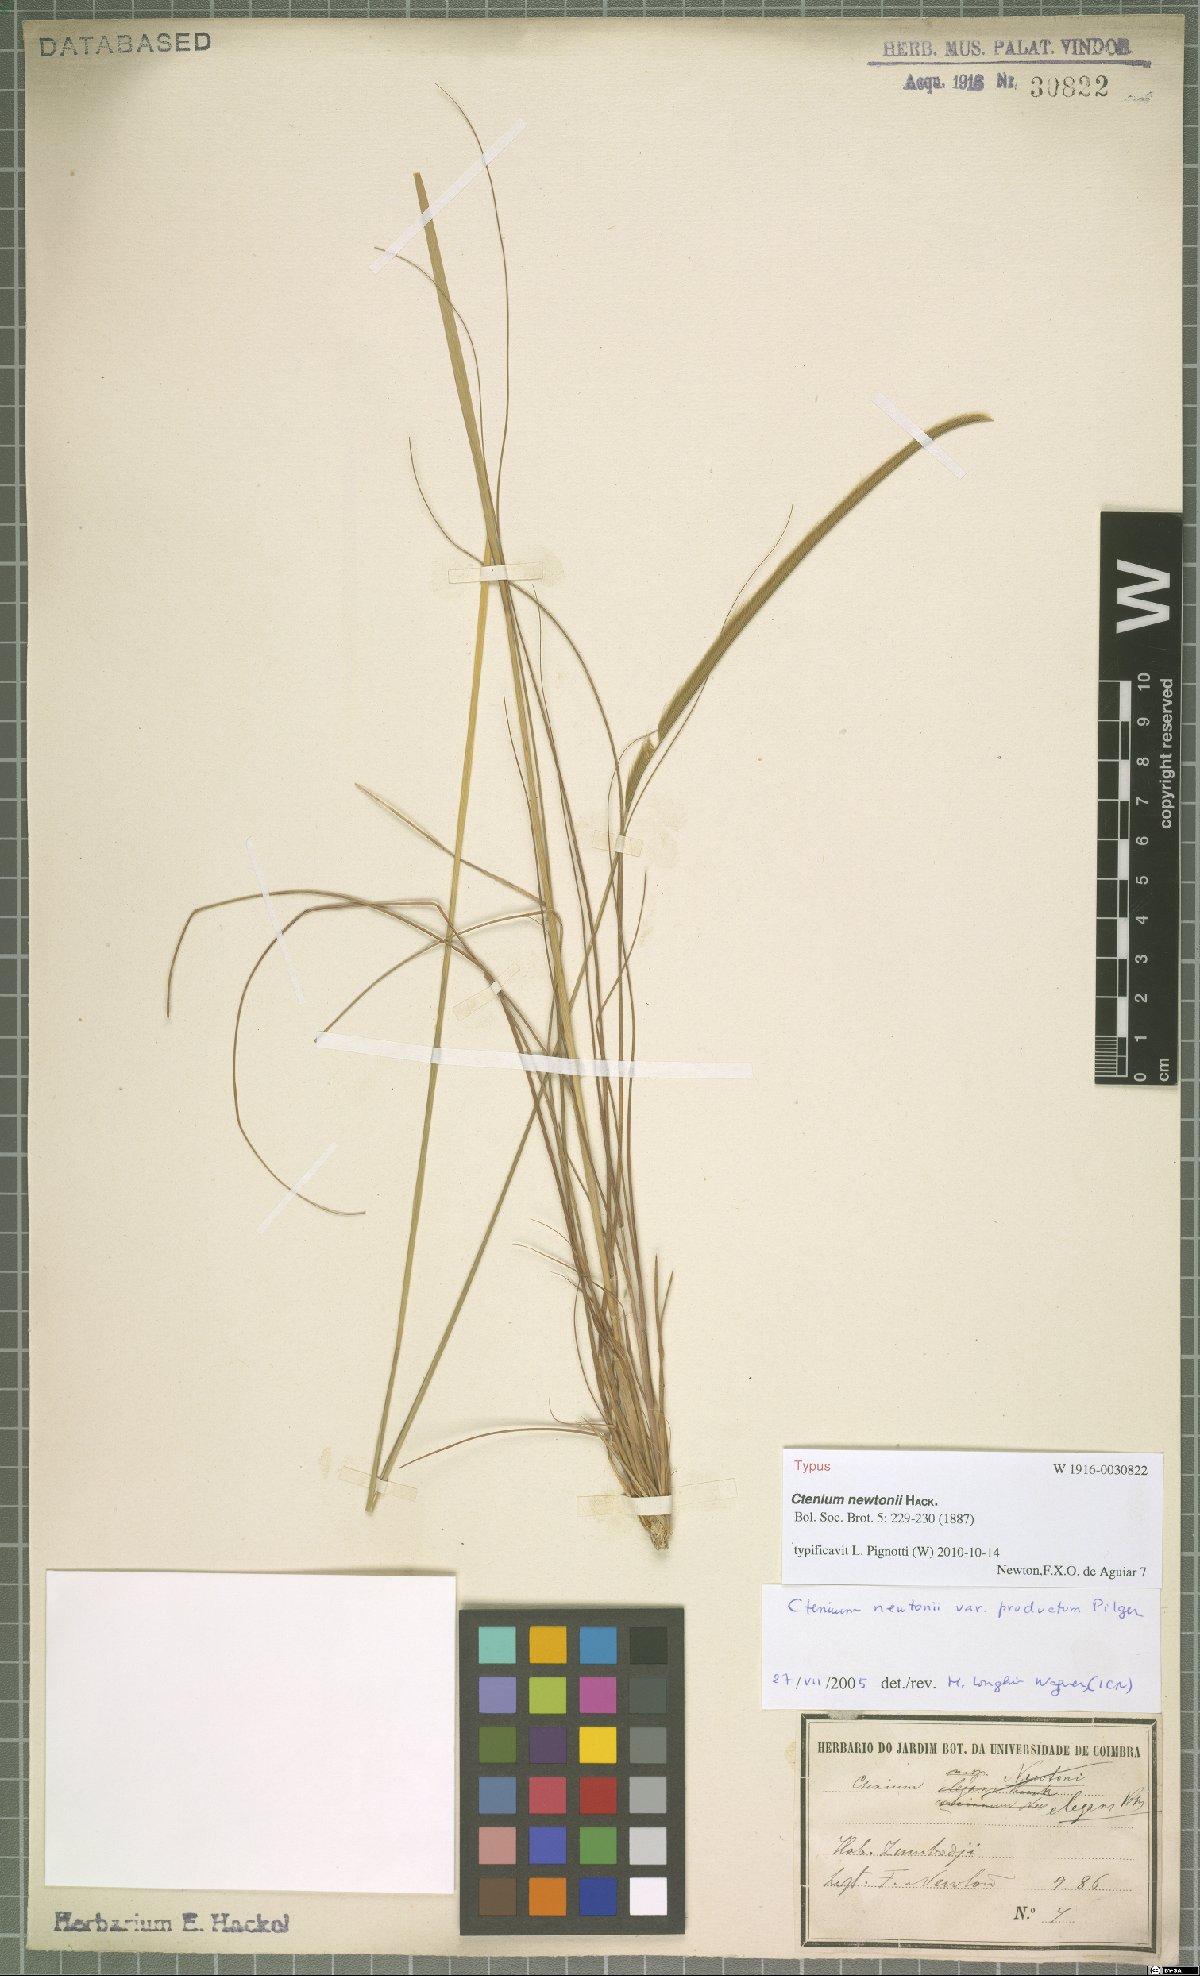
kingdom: Plantae
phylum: Tracheophyta
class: Liliopsida
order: Poales
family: Poaceae
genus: Ctenium
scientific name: Ctenium newtonii
